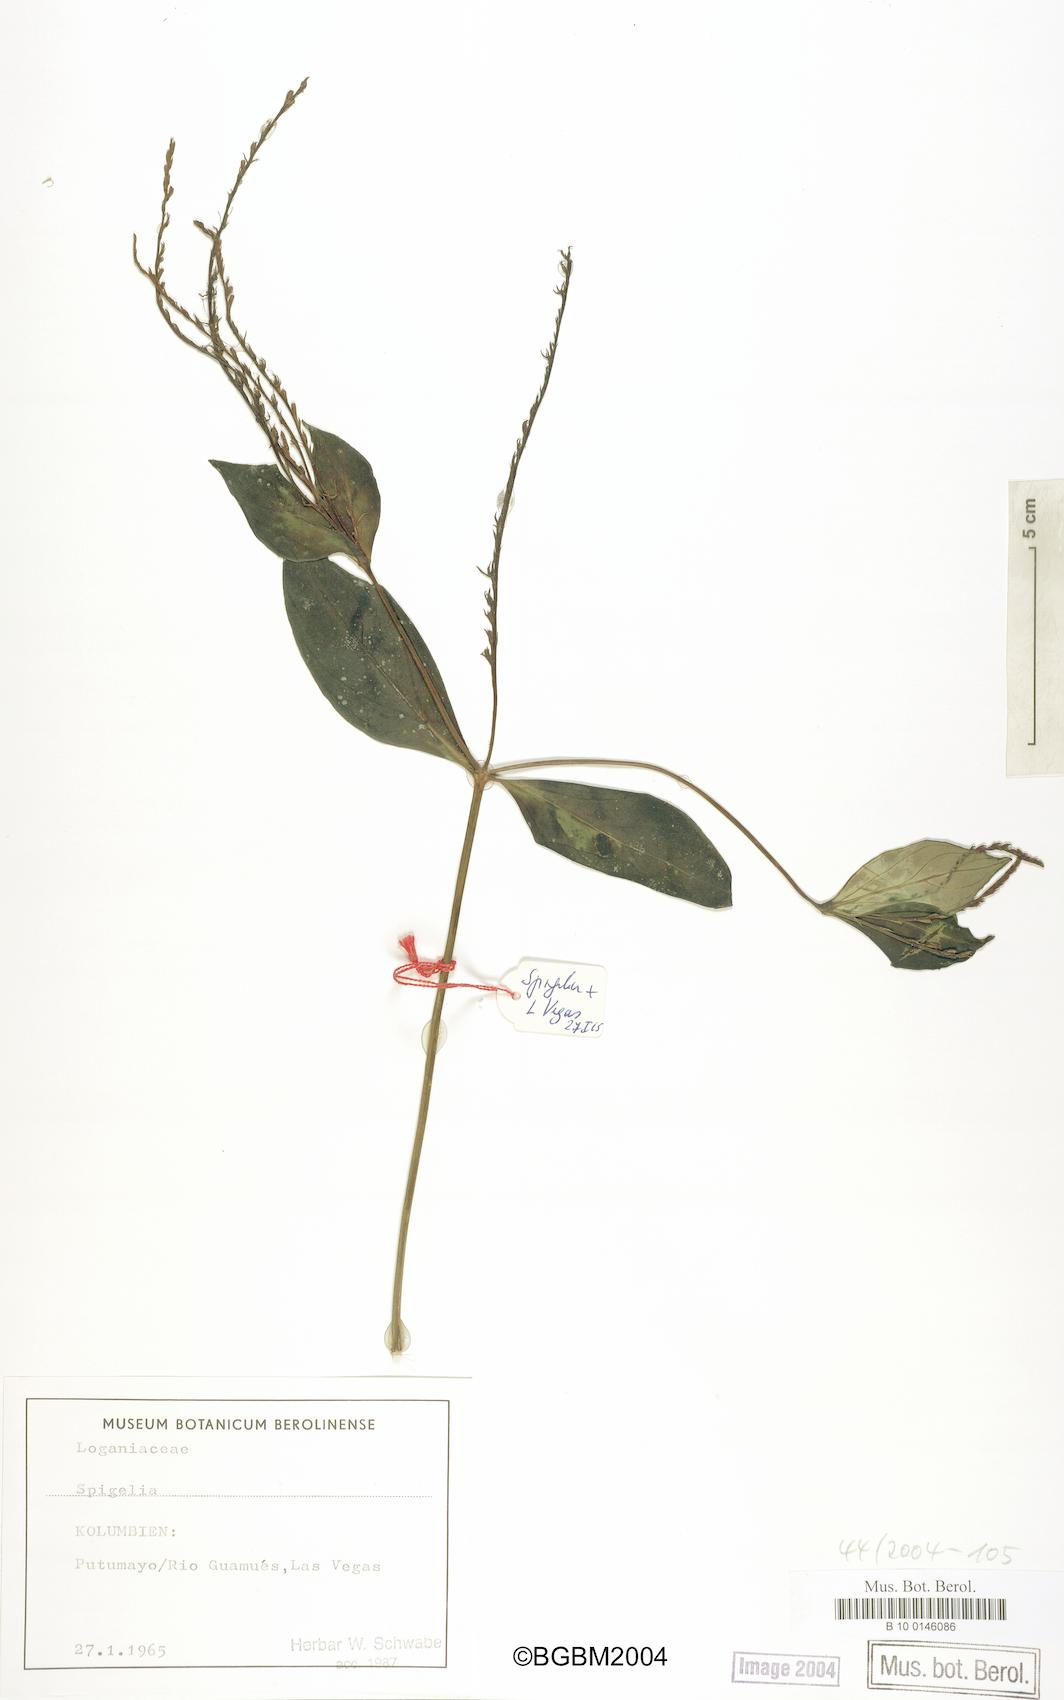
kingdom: Plantae
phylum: Tracheophyta
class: Magnoliopsida
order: Gentianales
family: Loganiaceae
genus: Spigelia
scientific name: Spigelia
